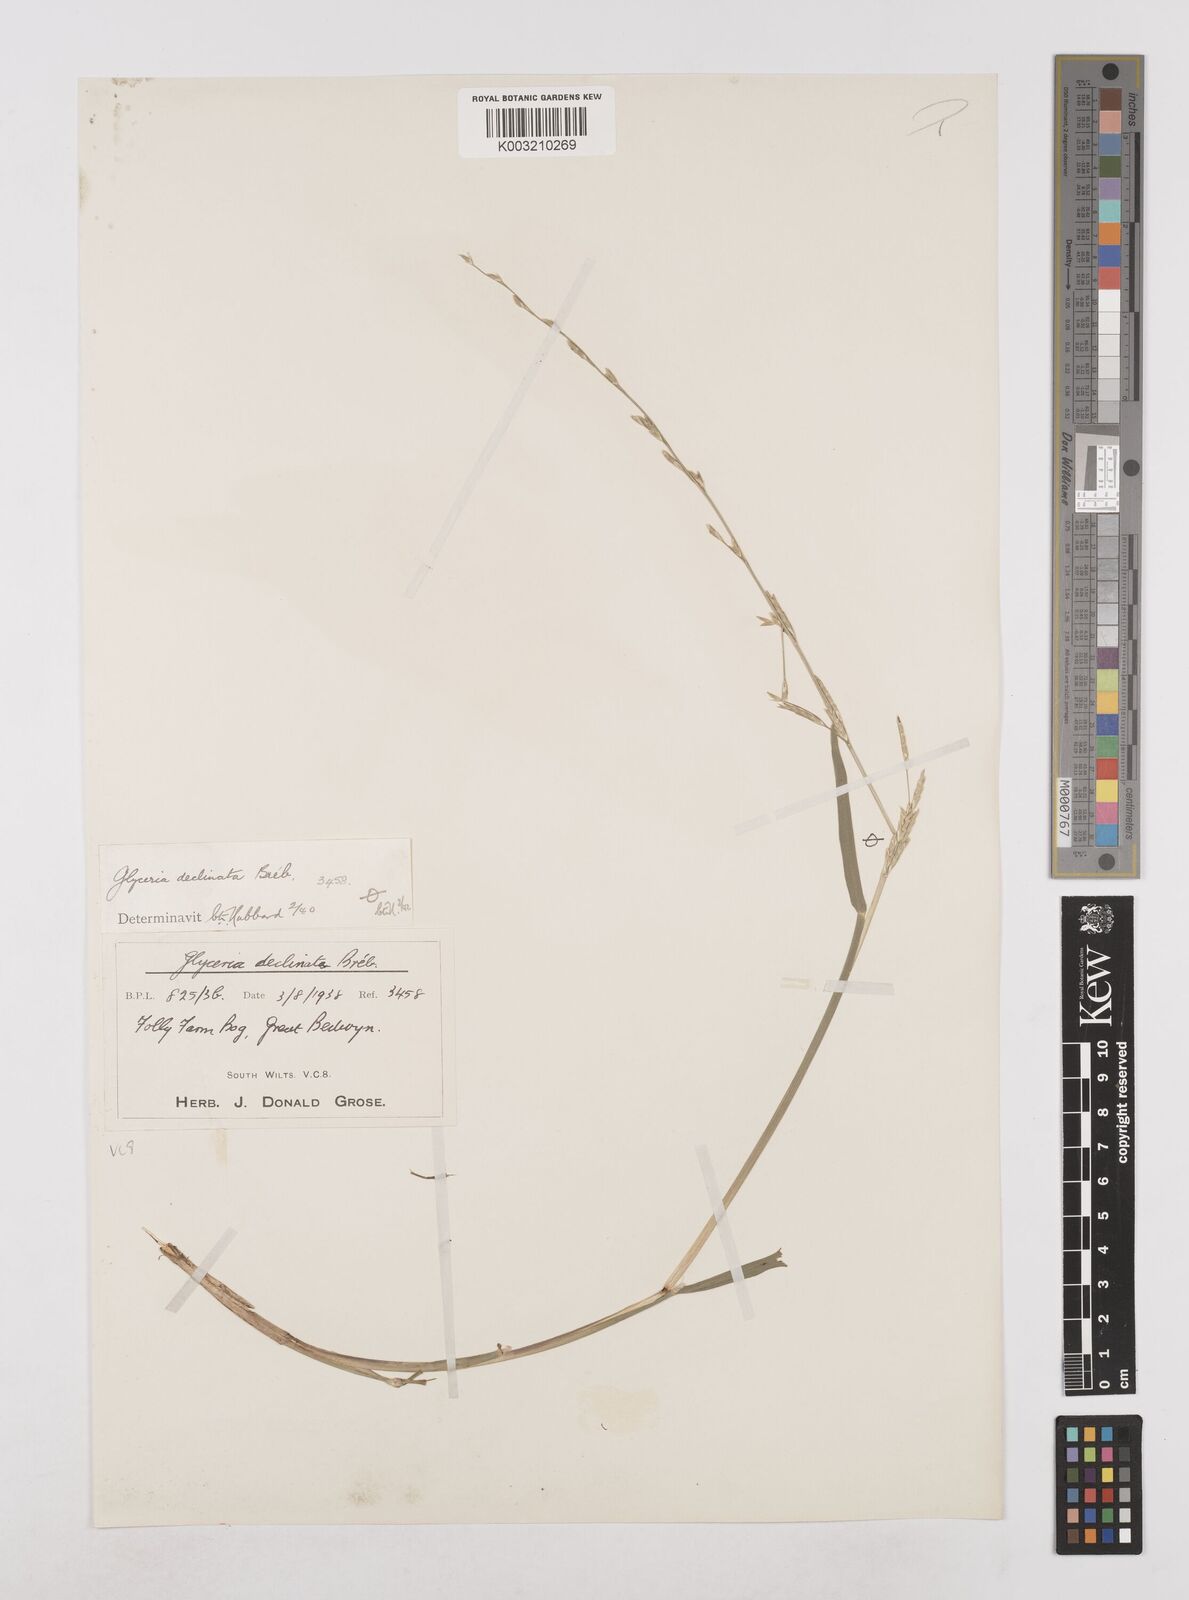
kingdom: Plantae
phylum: Tracheophyta
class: Liliopsida
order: Poales
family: Poaceae
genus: Glyceria
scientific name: Glyceria declinata
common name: Small sweet-grass
